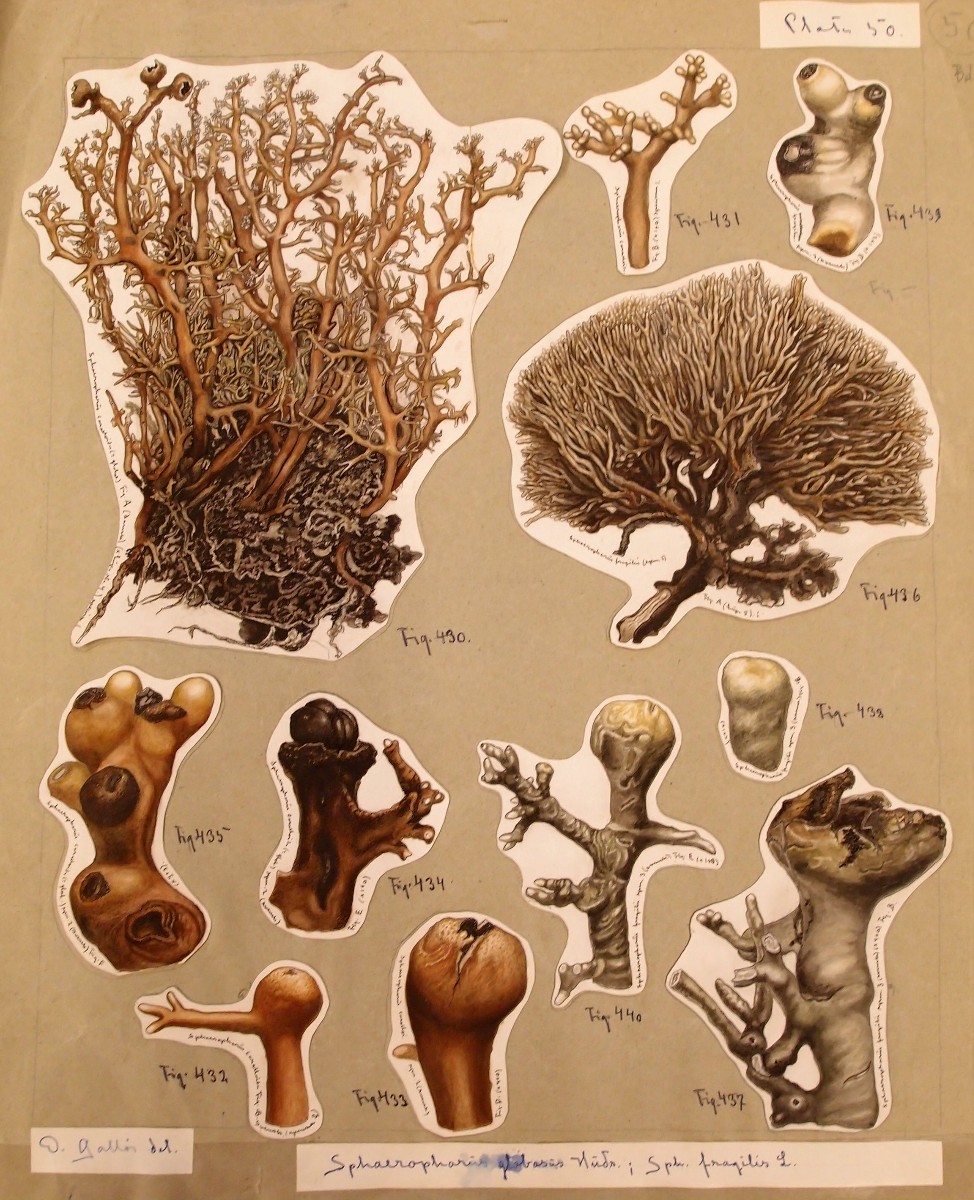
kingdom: Fungi
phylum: Ascomycota
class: Lecanoromycetes
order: Lecanorales
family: Sphaerophoraceae
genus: Sphaerophorus
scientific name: Sphaerophorus globosus
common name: almindelig kuglelav
